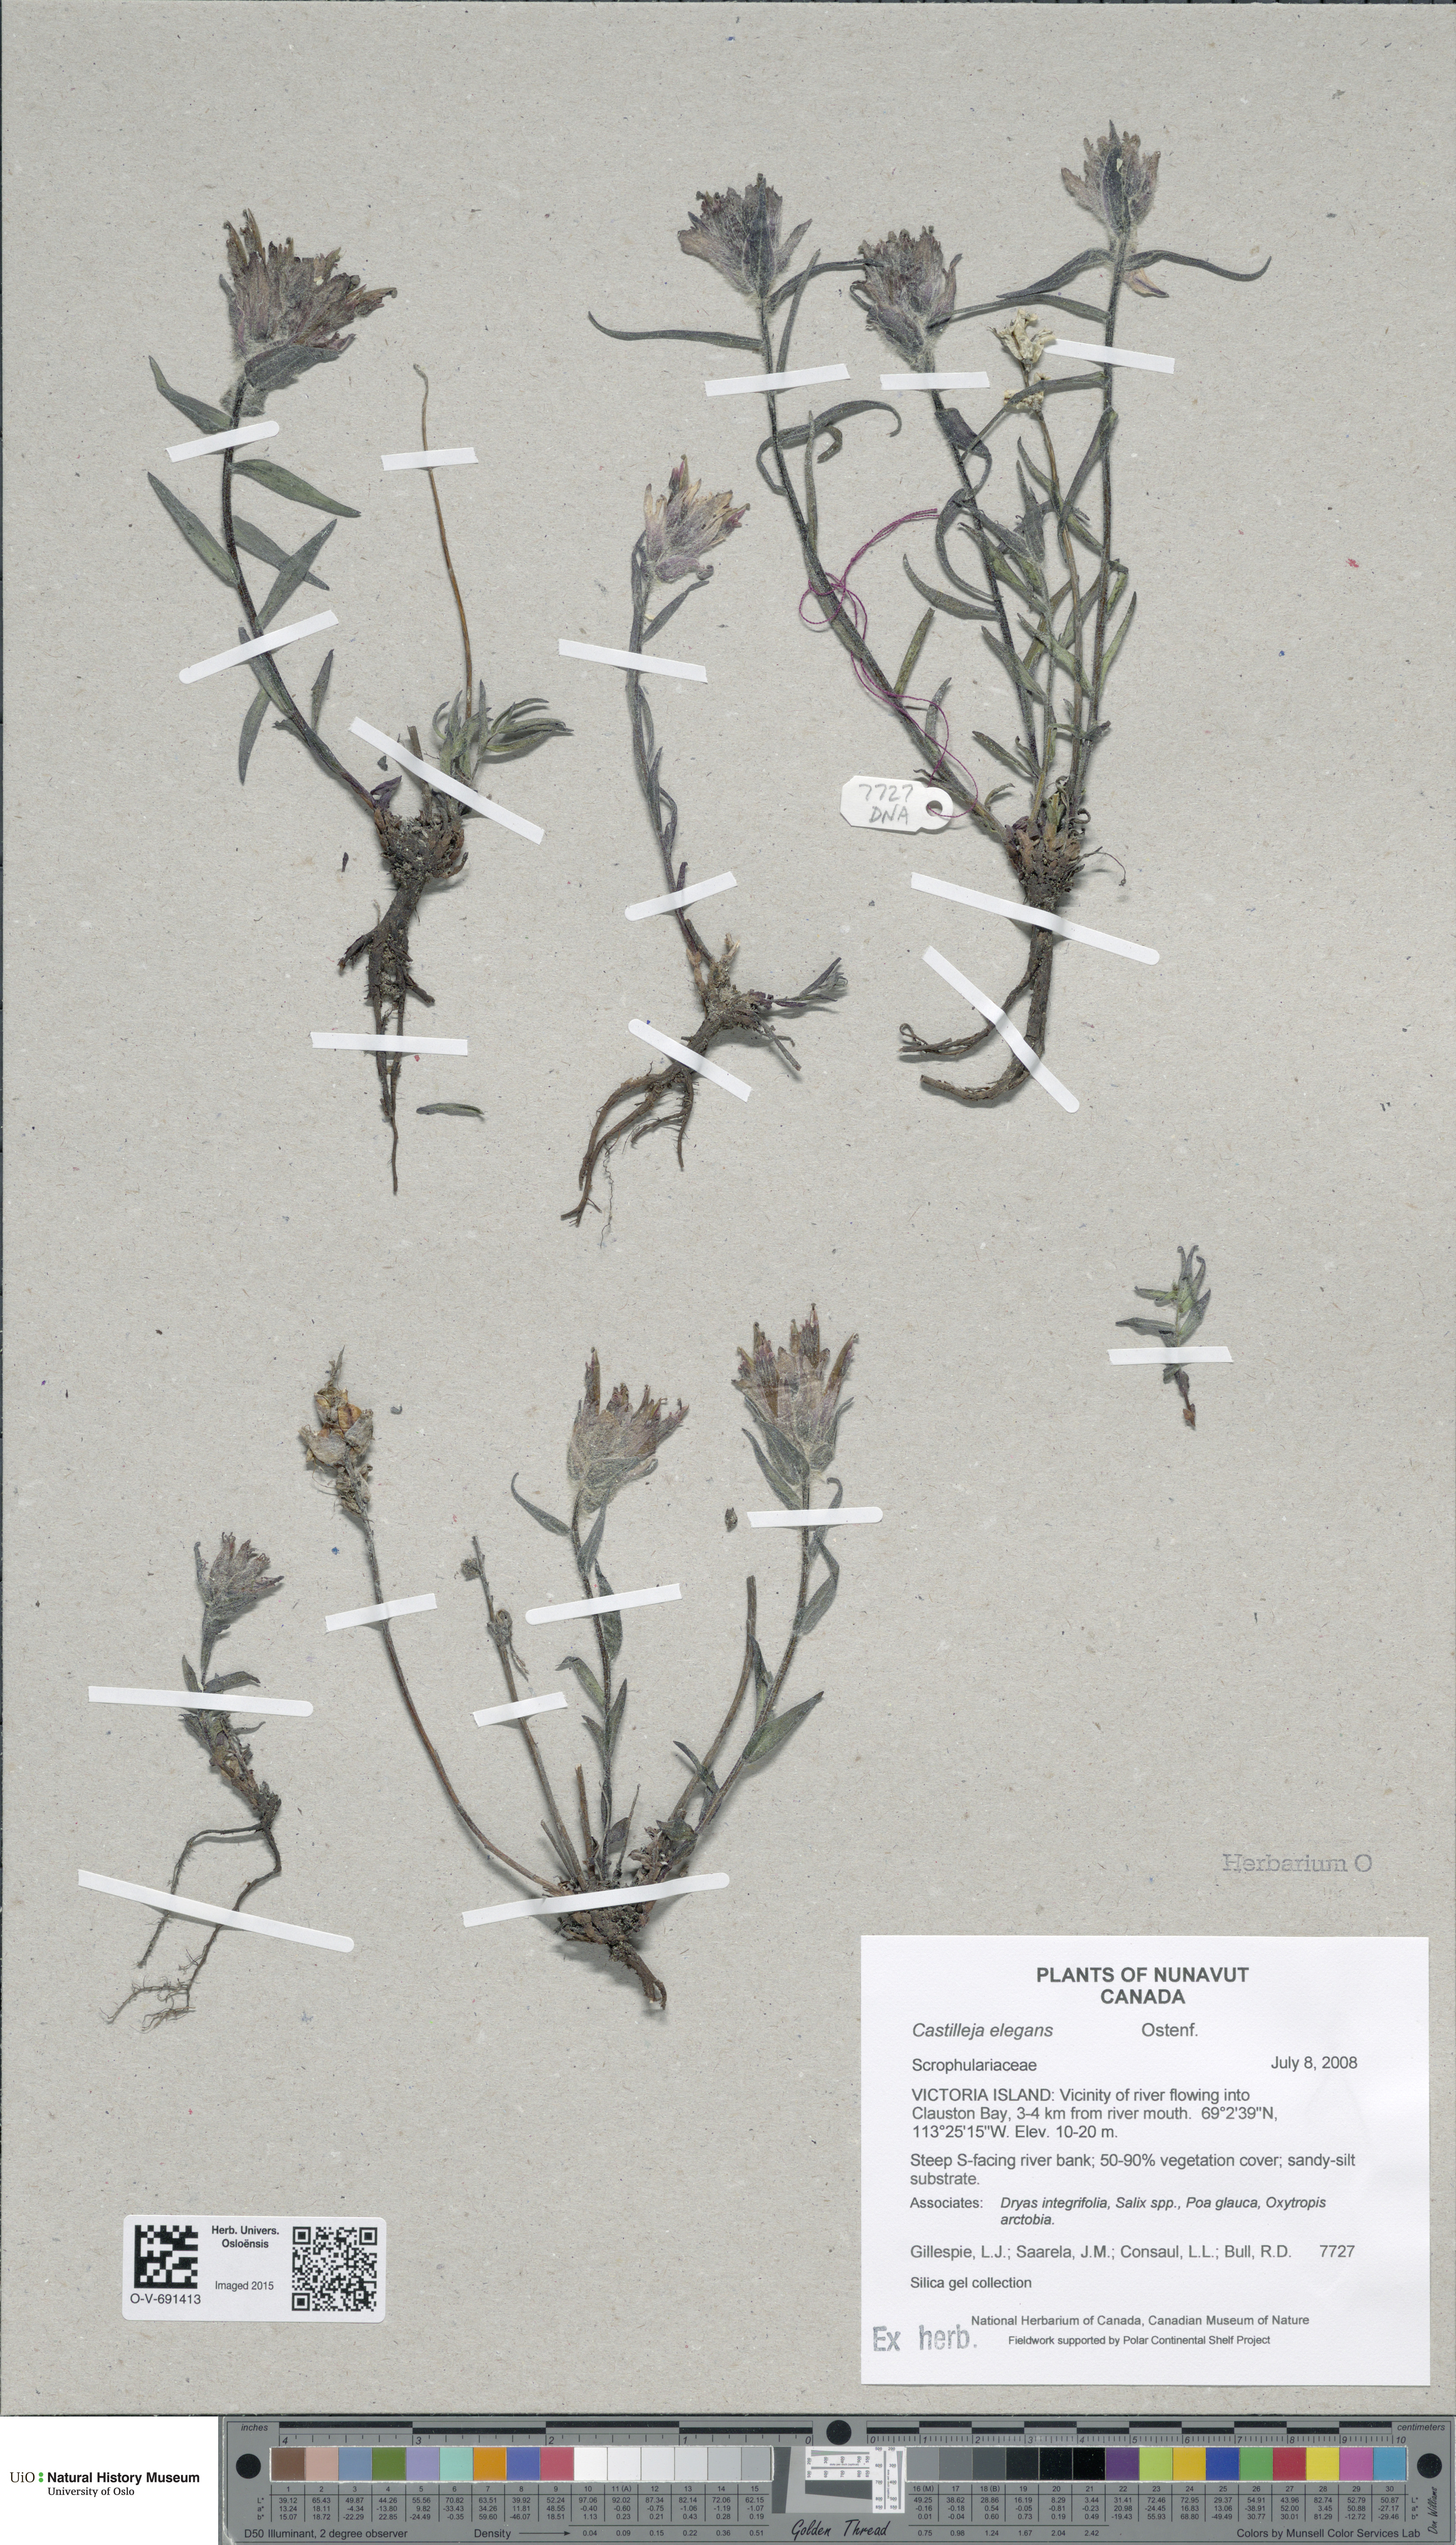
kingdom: Plantae
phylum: Tracheophyta
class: Magnoliopsida
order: Lamiales
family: Orobanchaceae
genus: Castilleja
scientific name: Castilleja elegans
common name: Elegant paintbrush
